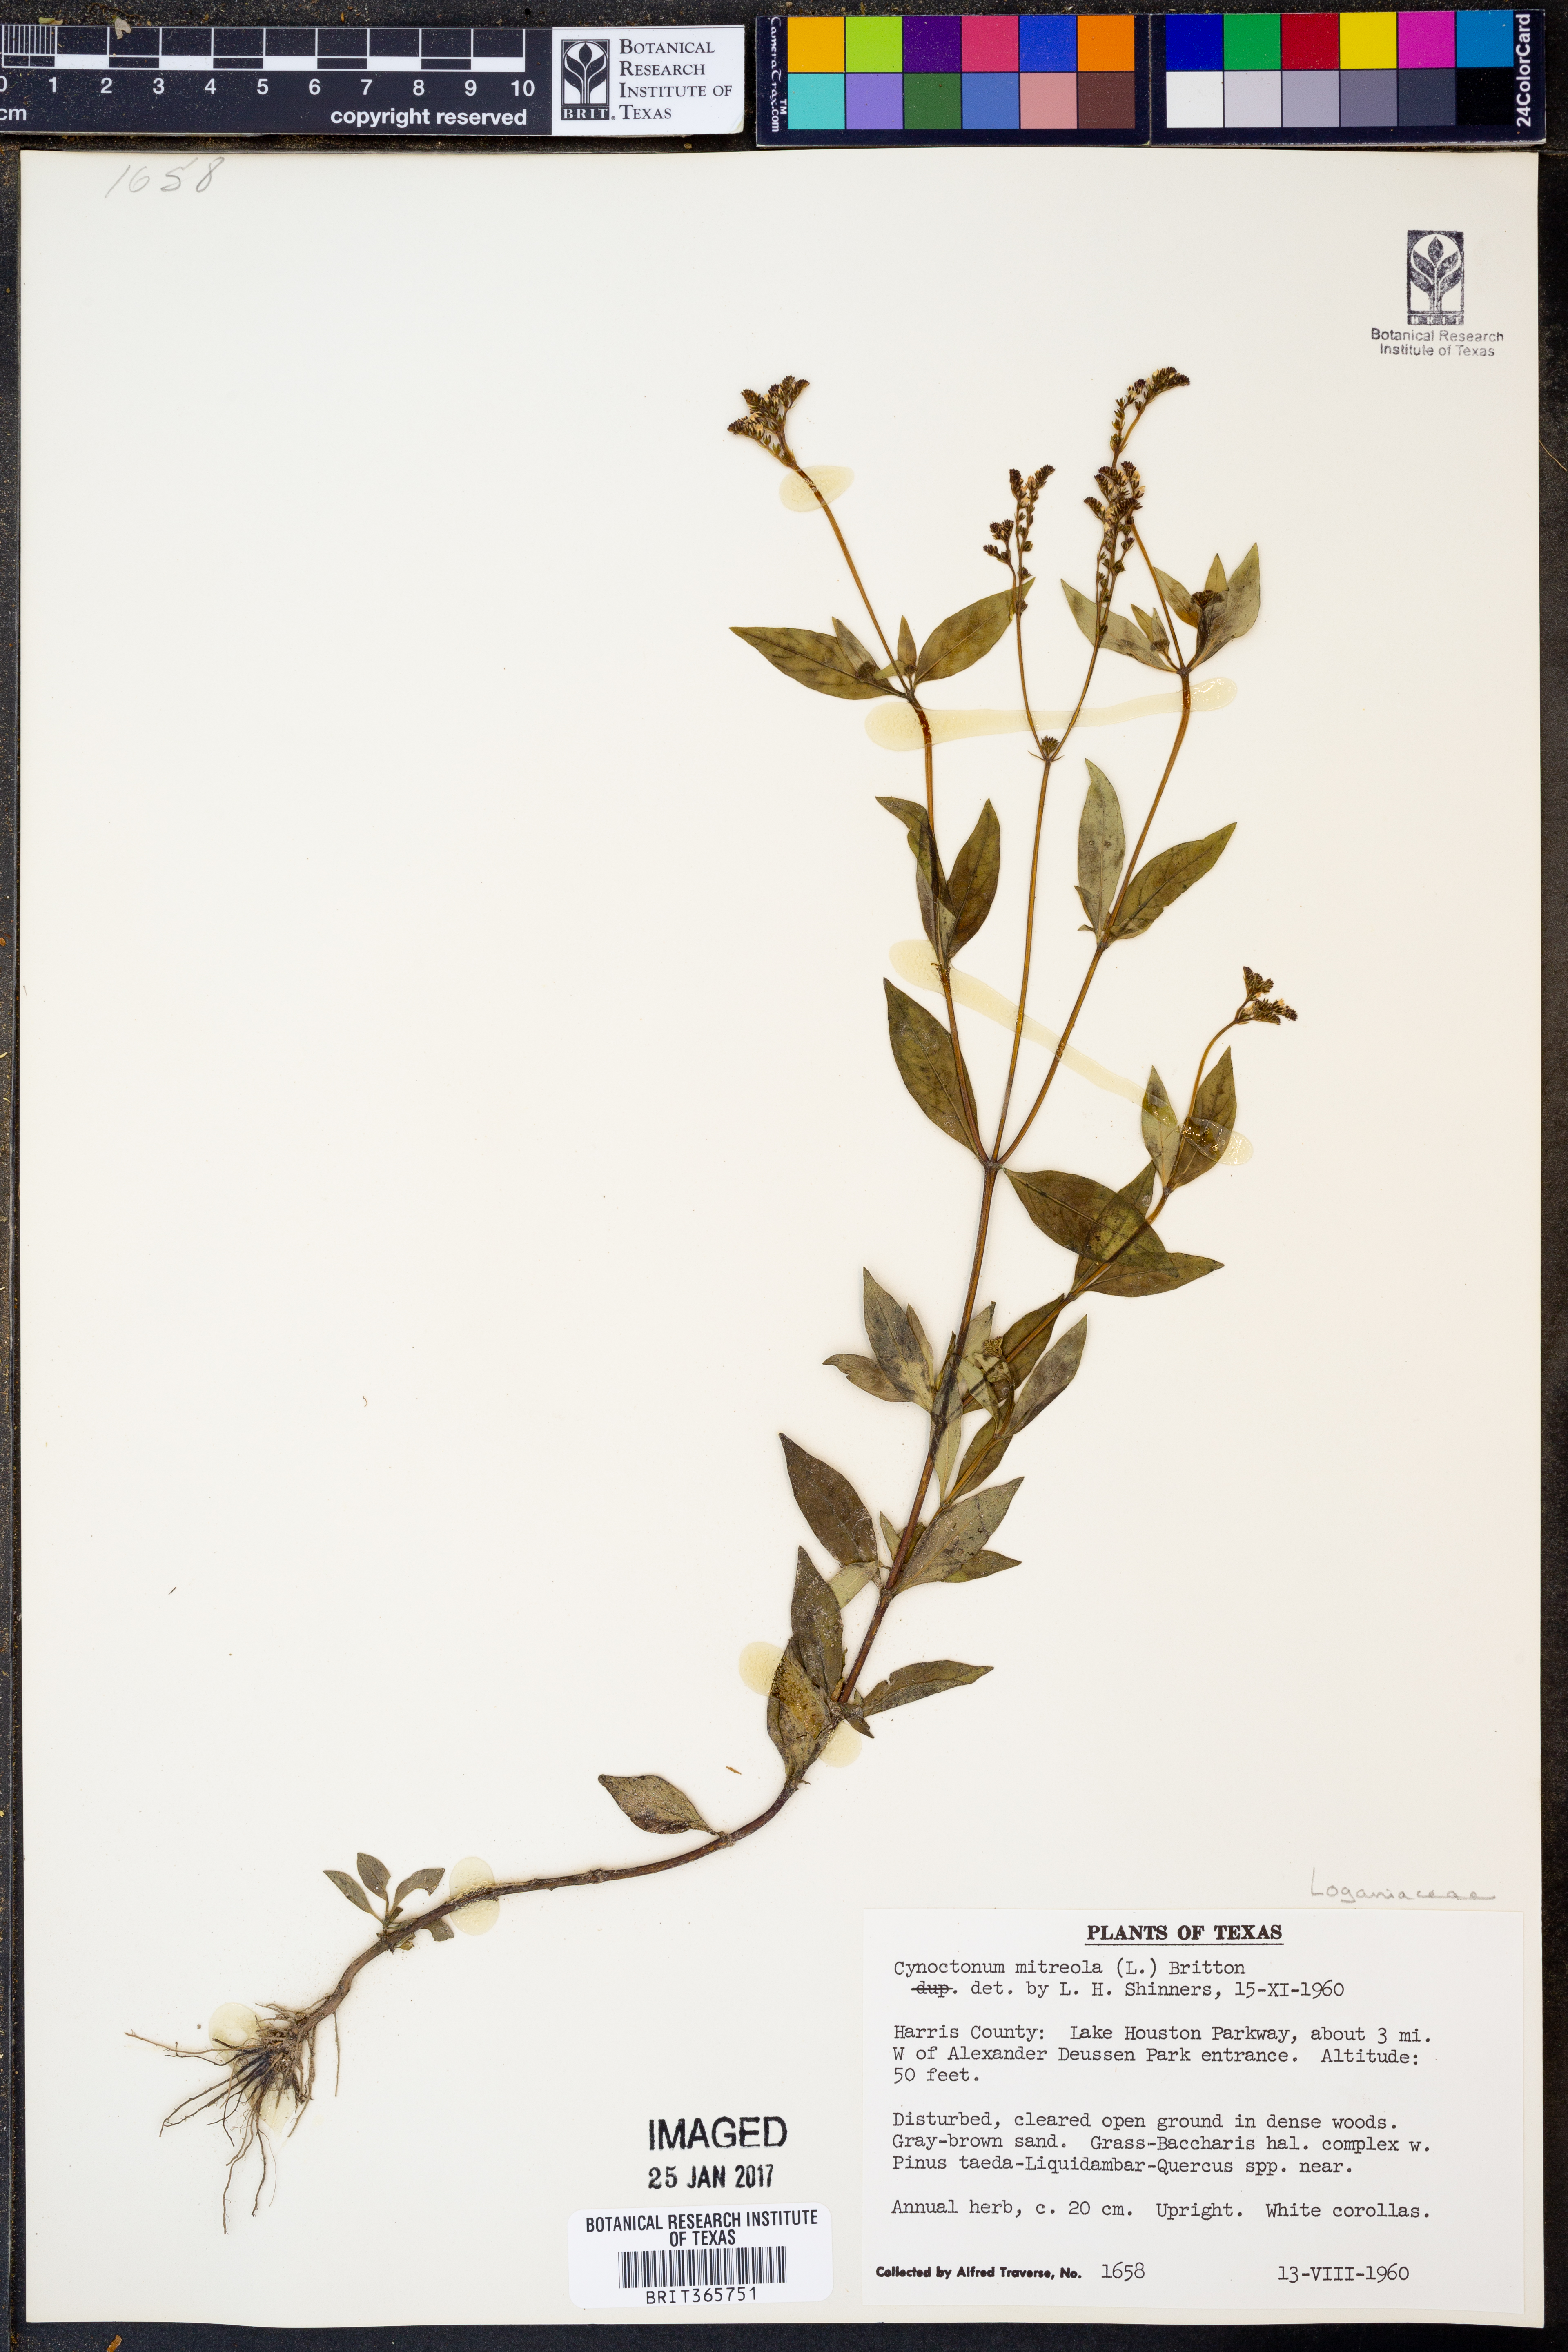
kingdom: Plantae
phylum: Tracheophyta
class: Magnoliopsida
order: Gentianales
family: Loganiaceae
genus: Mitreola
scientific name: Mitreola petiolata
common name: Lax hornpod
